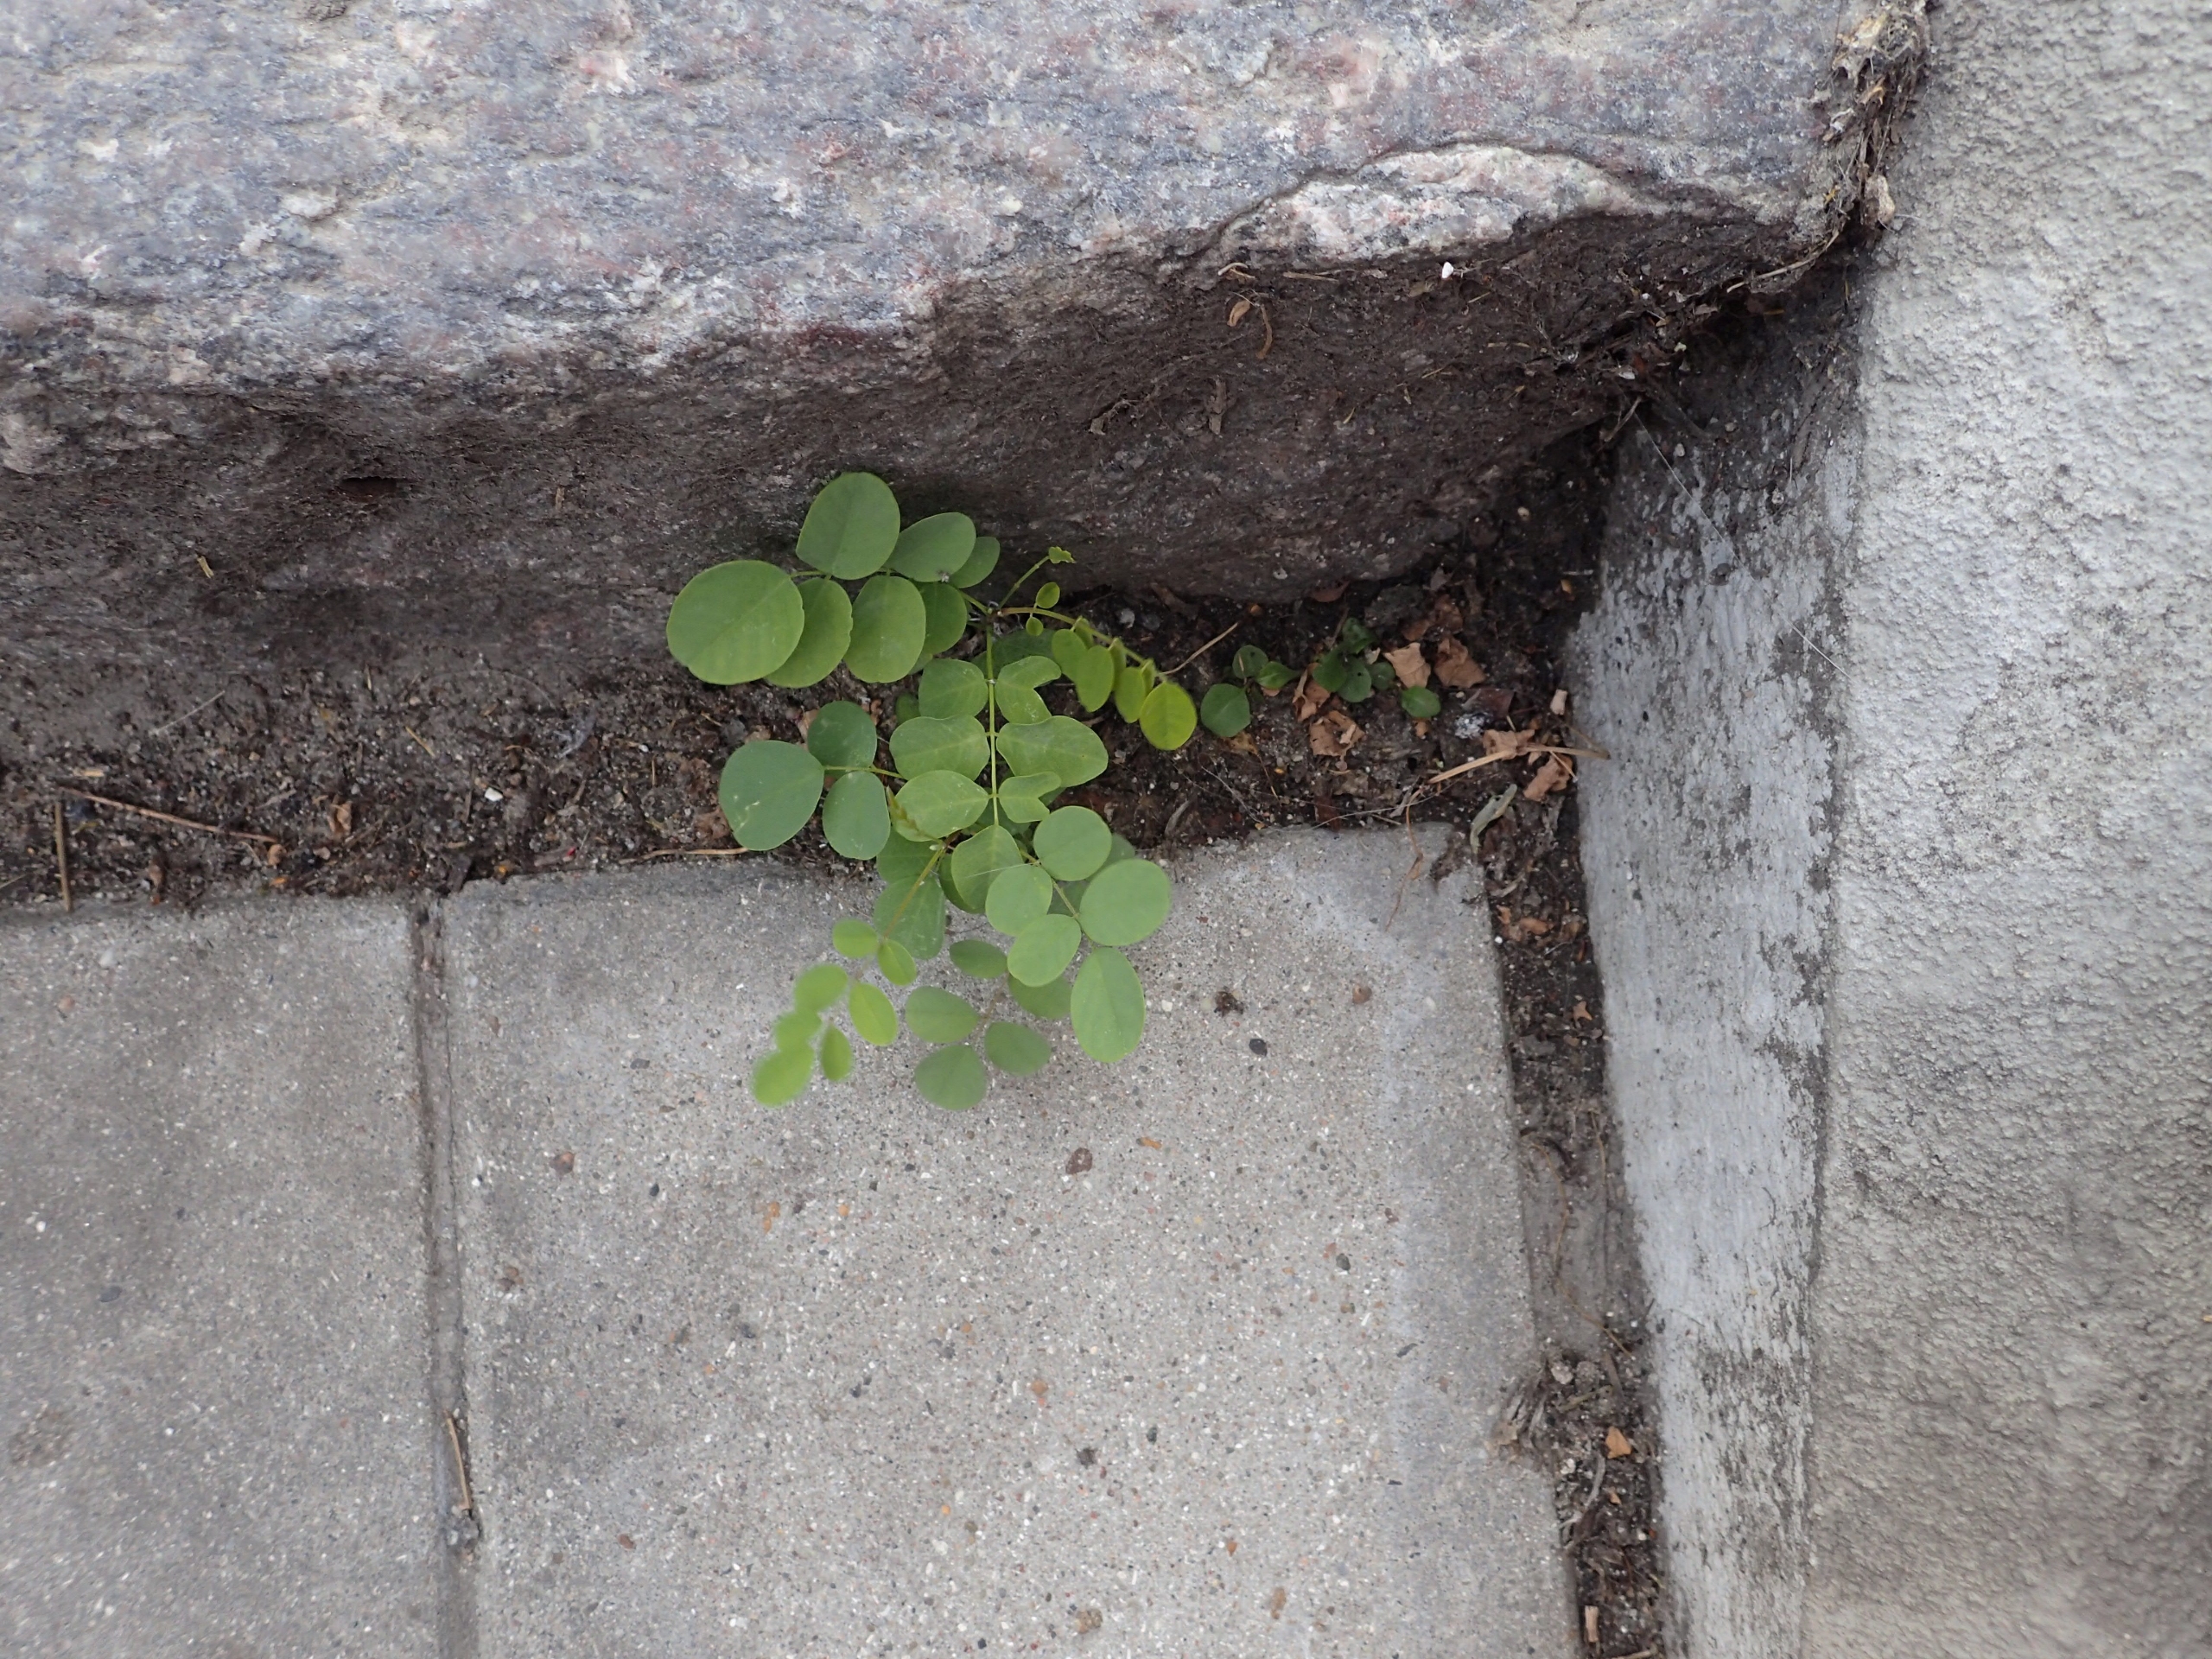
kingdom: Plantae
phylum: Tracheophyta
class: Magnoliopsida
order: Fabales
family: Fabaceae
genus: Robinia
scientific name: Robinia pseudoacacia
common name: Robinie
